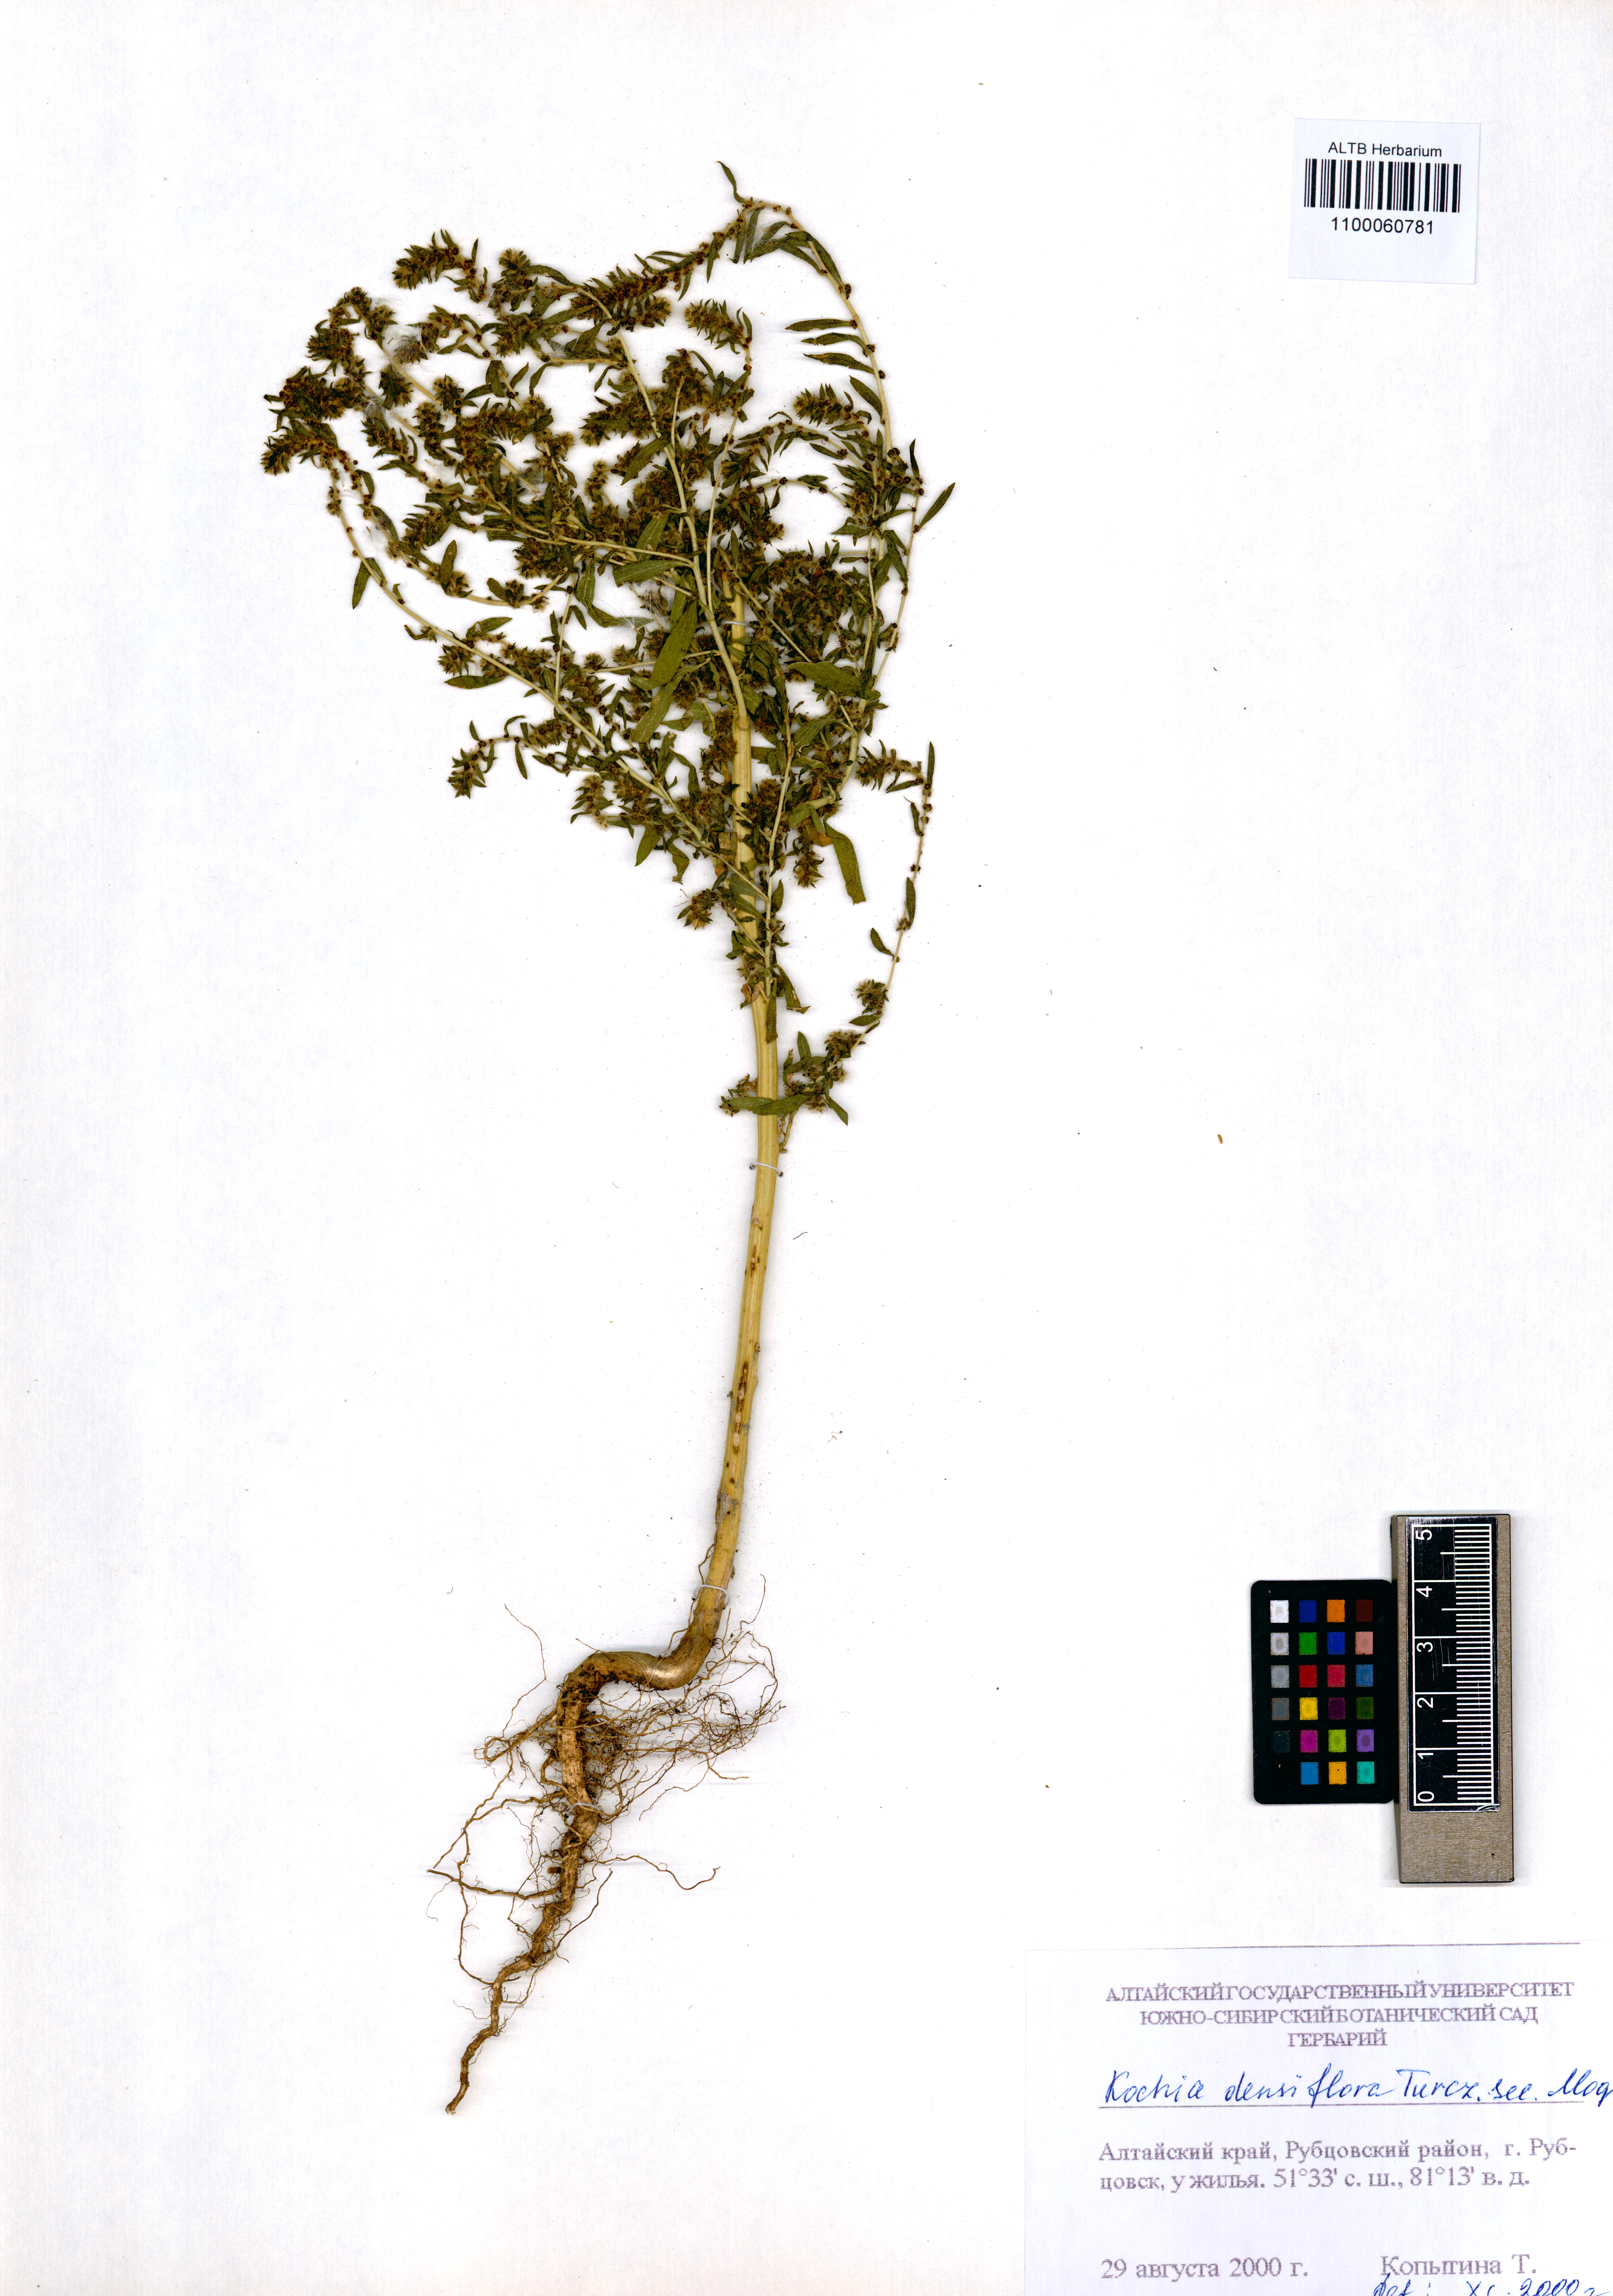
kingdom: Plantae
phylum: Tracheophyta
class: Magnoliopsida
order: Caryophyllales
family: Amaranthaceae
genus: Bassia
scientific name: Bassia scoparia
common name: Belvedere
